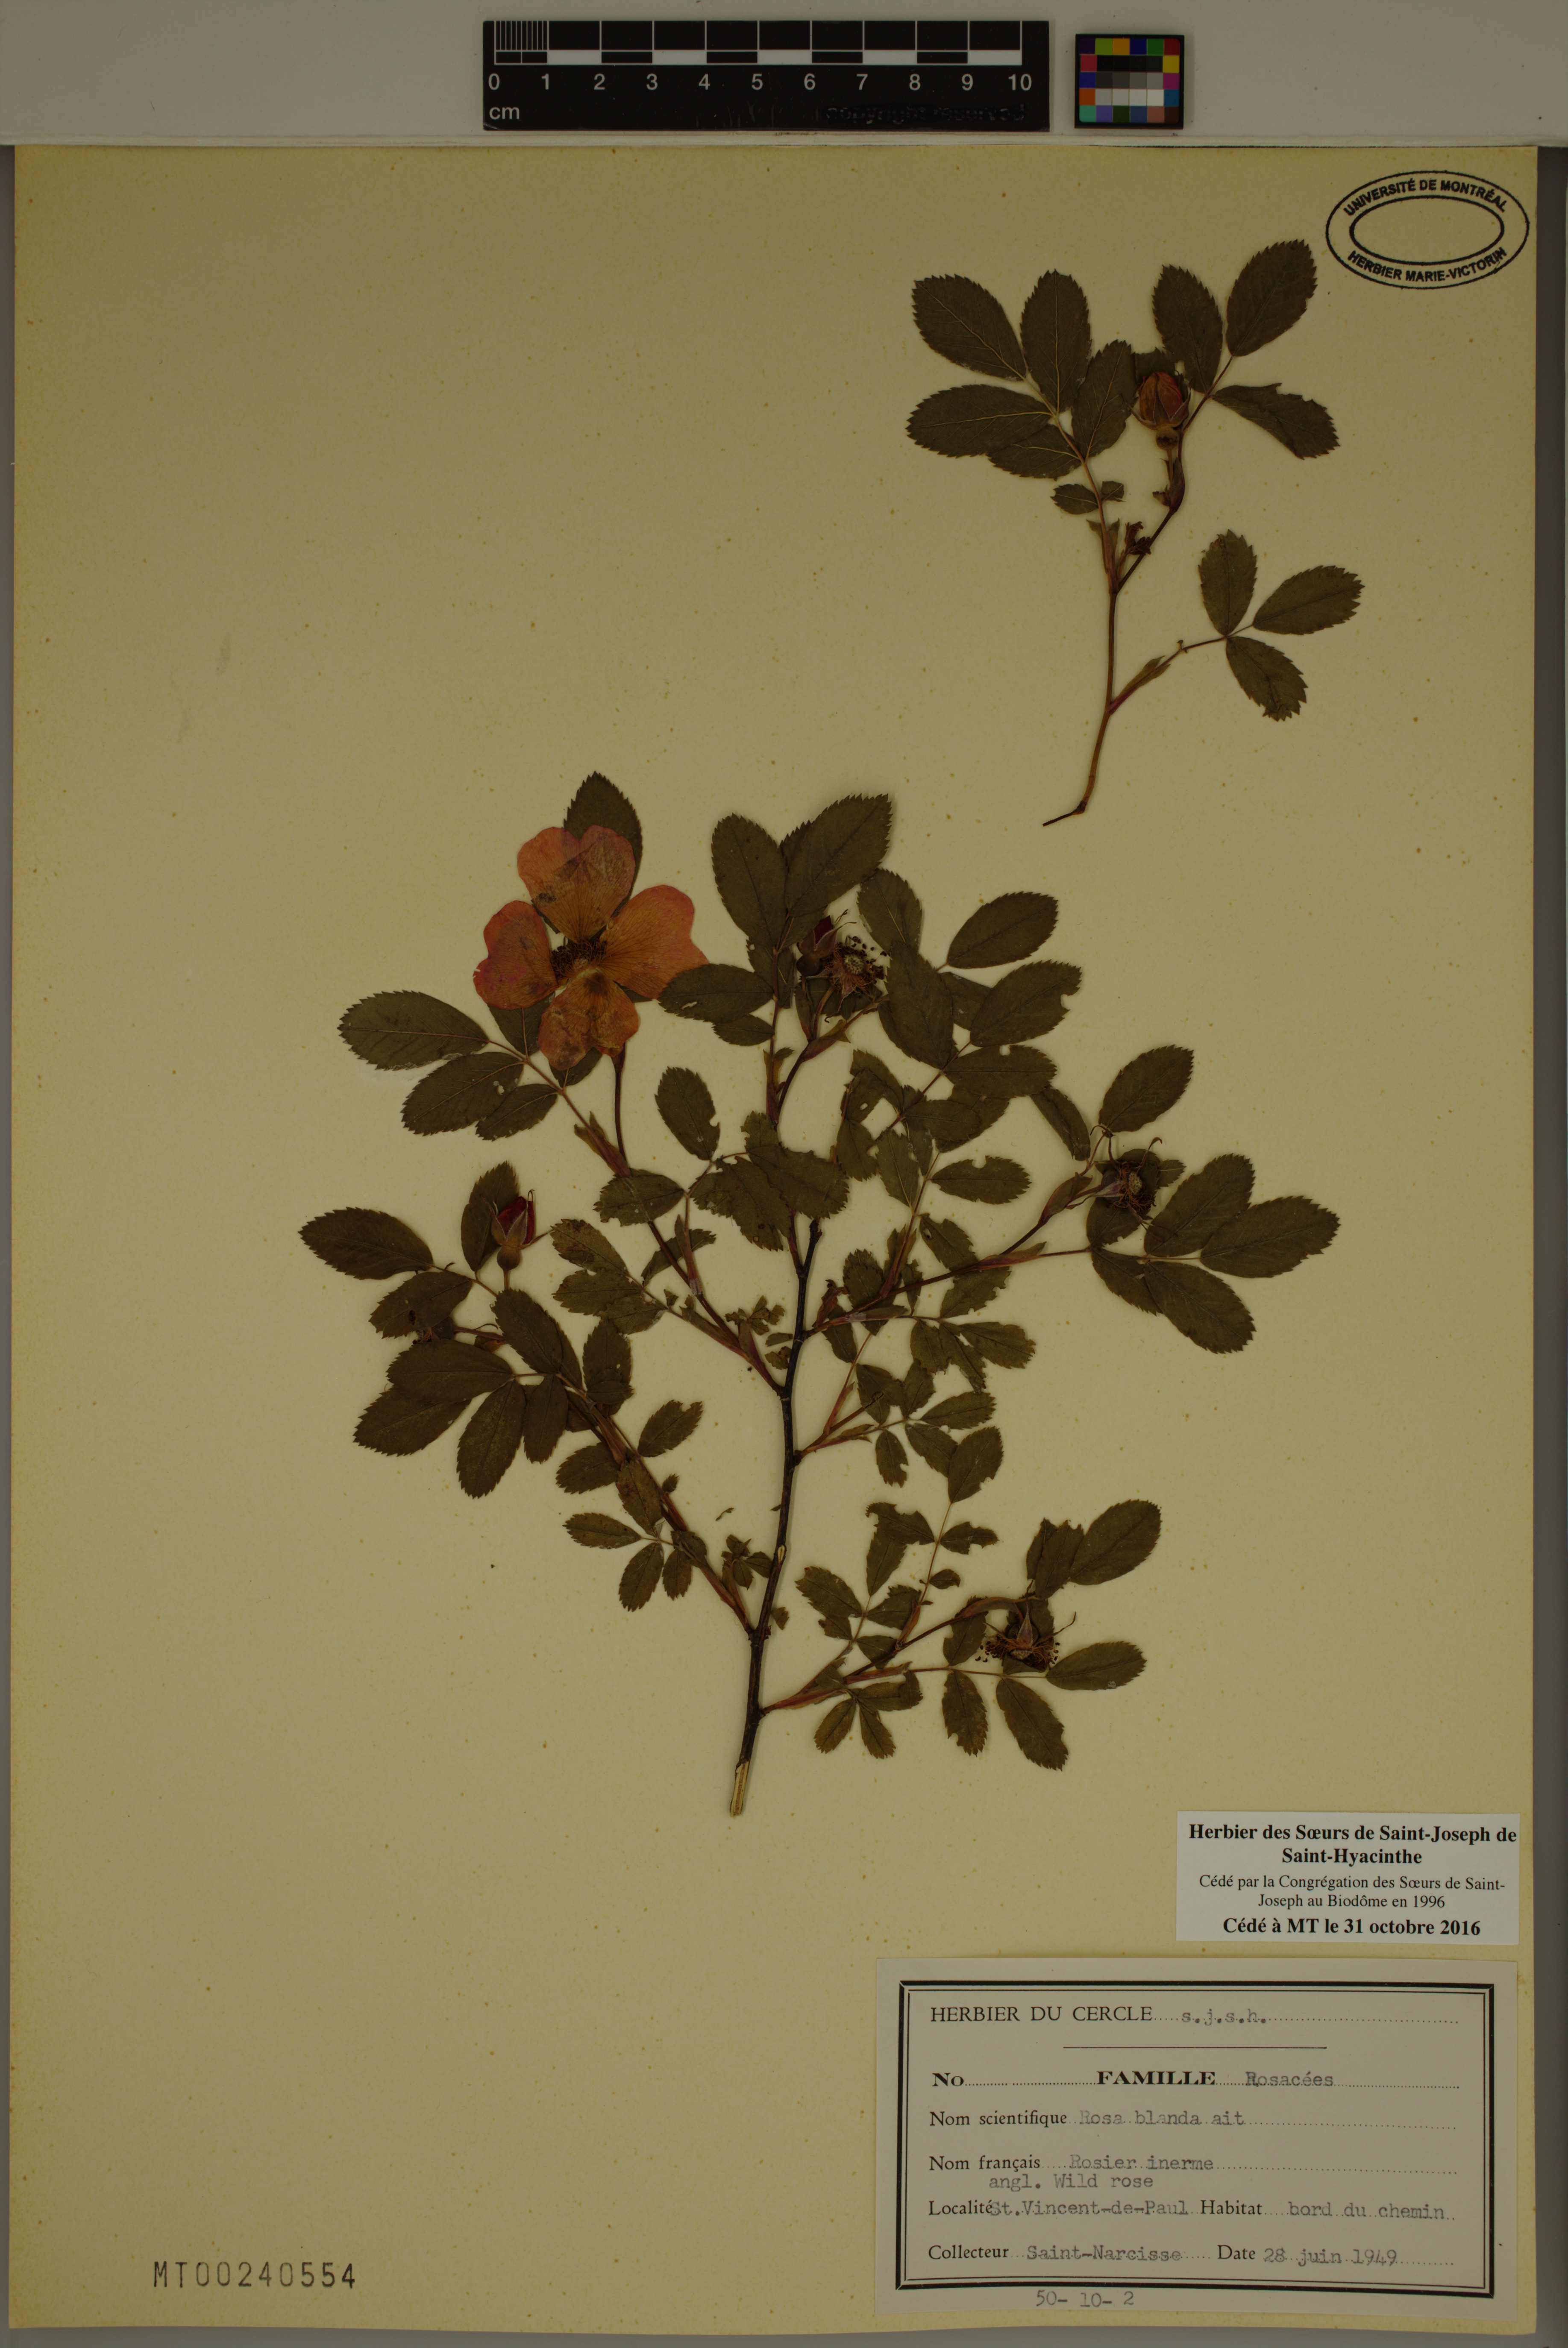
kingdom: Plantae
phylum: Tracheophyta
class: Magnoliopsida
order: Rosales
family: Rosaceae
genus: Rosa
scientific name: Rosa blanda
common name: Smooth rose
